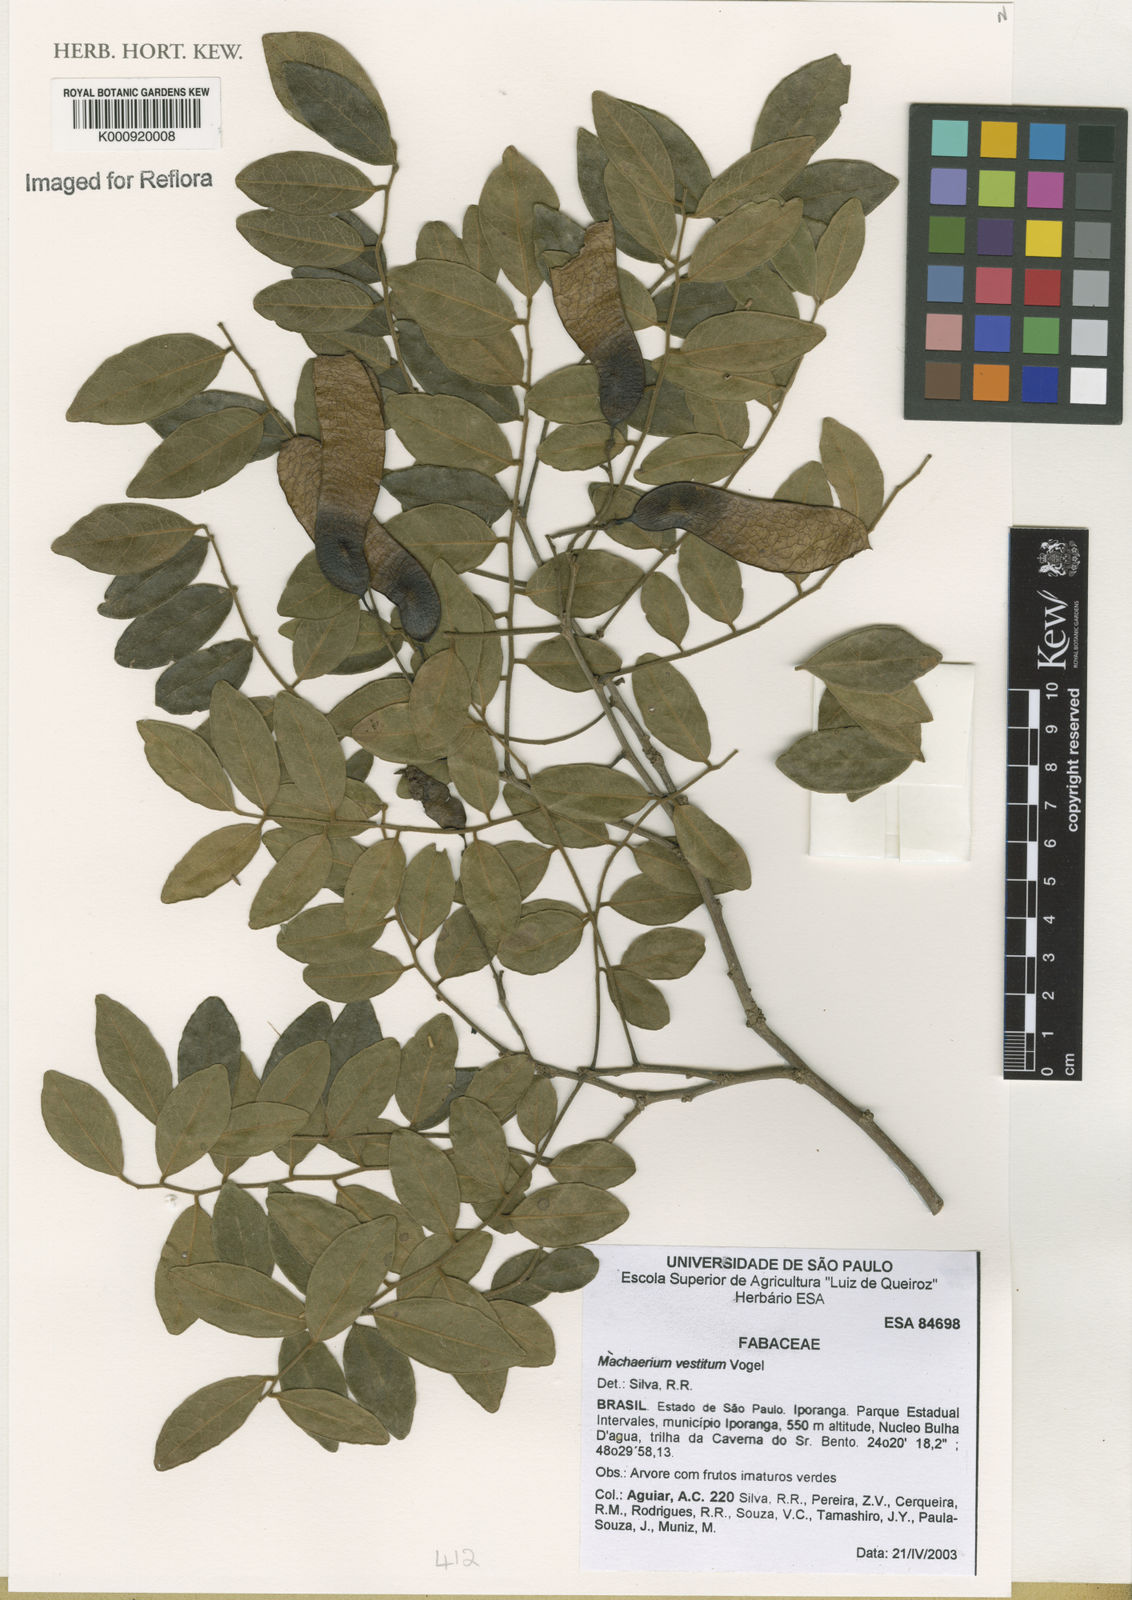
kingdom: Plantae
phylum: Tracheophyta
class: Magnoliopsida
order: Fabales
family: Fabaceae
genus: Machaerium
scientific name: Machaerium brasiliense
